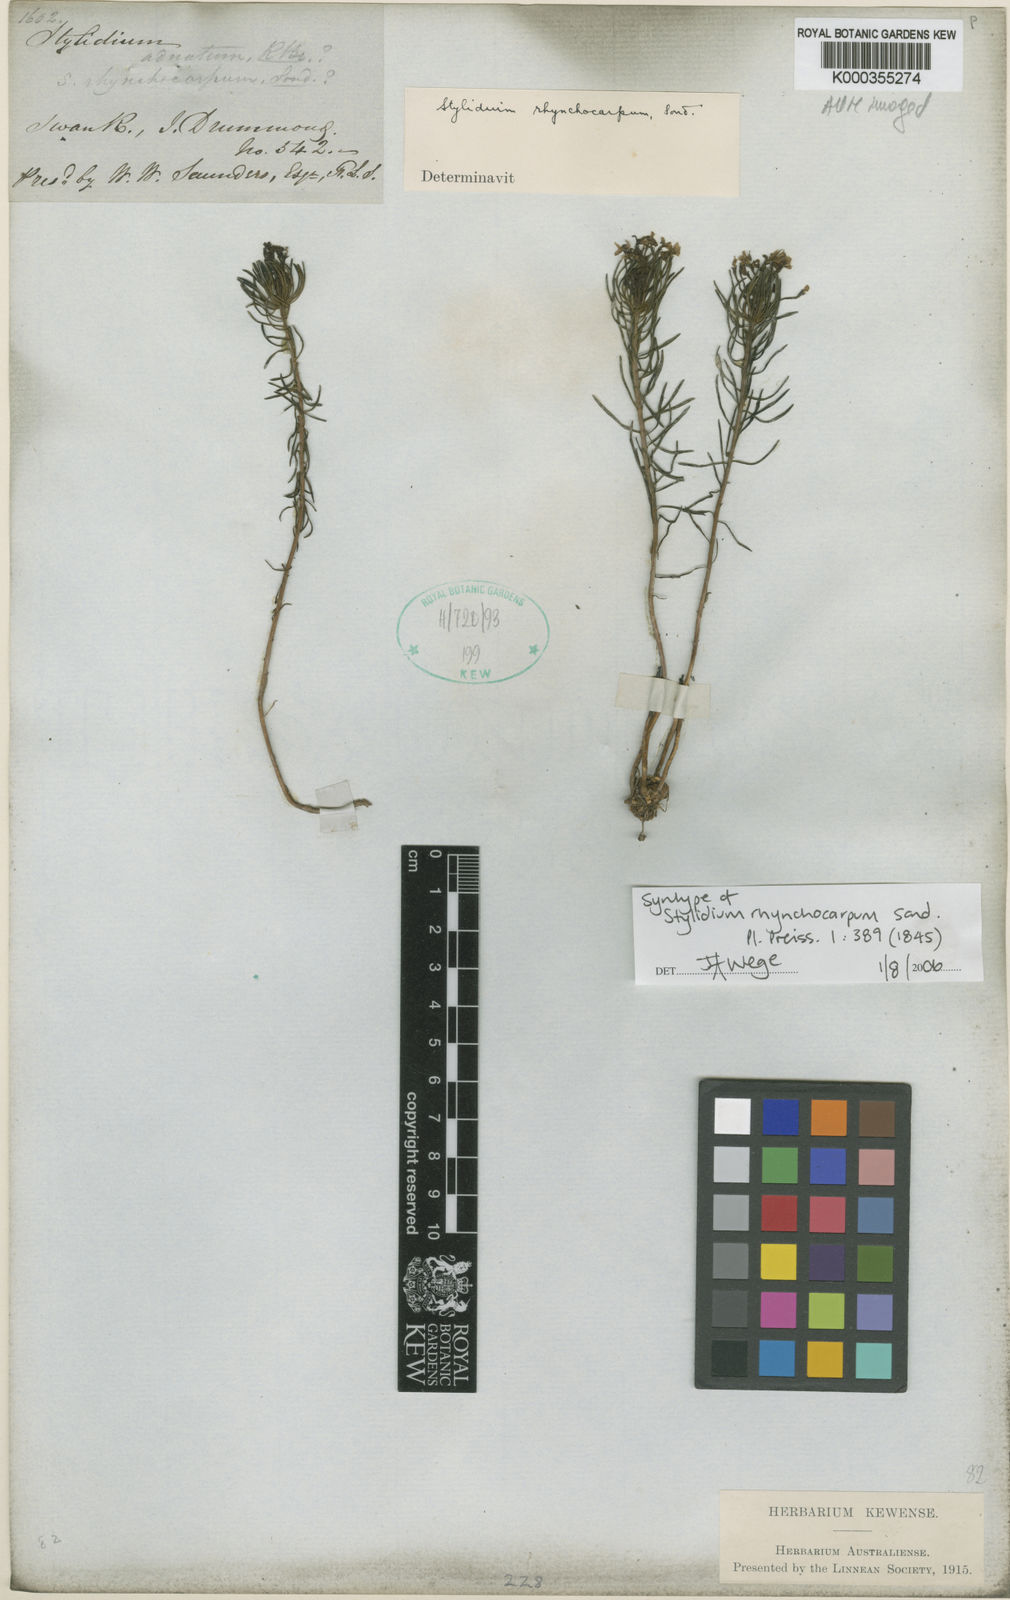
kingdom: Plantae
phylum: Tracheophyta
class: Magnoliopsida
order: Asterales
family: Stylidiaceae
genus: Stylidium
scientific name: Stylidium rhynchocarpum
